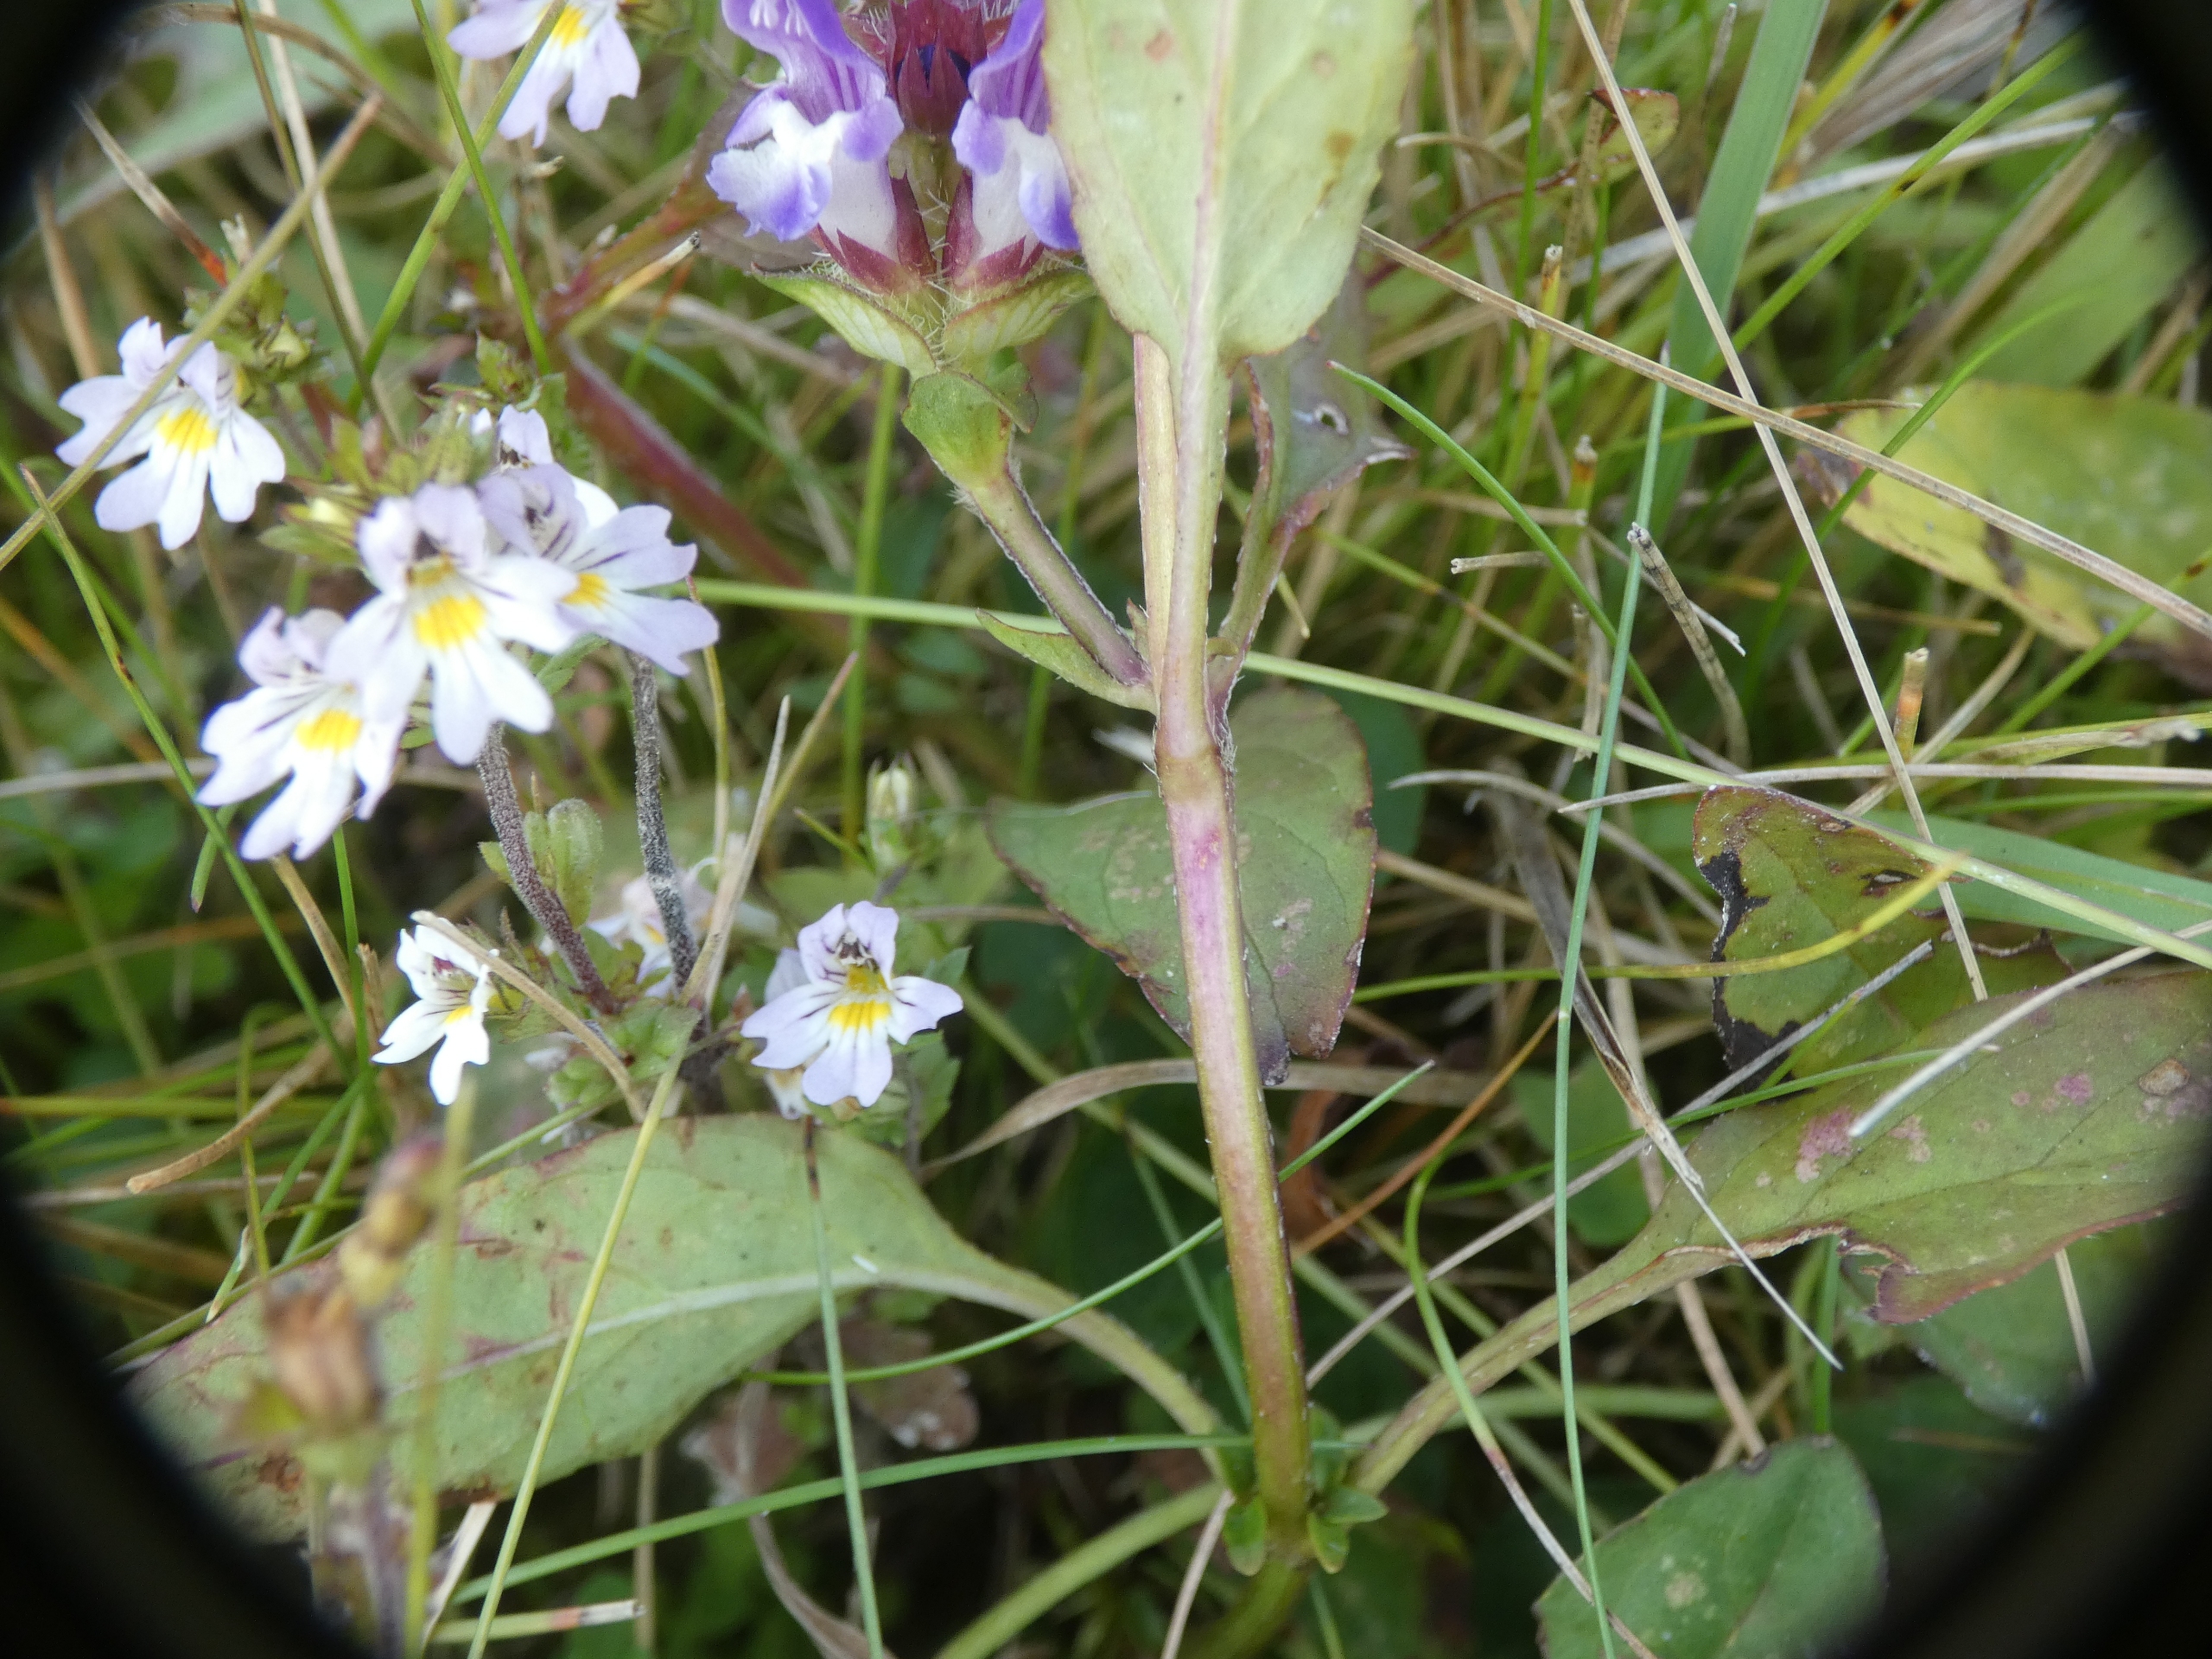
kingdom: Plantae
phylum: Tracheophyta
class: Magnoliopsida
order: Lamiales
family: Lamiaceae
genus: Prunella
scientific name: Prunella vulgaris
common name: Almindelig brunelle
